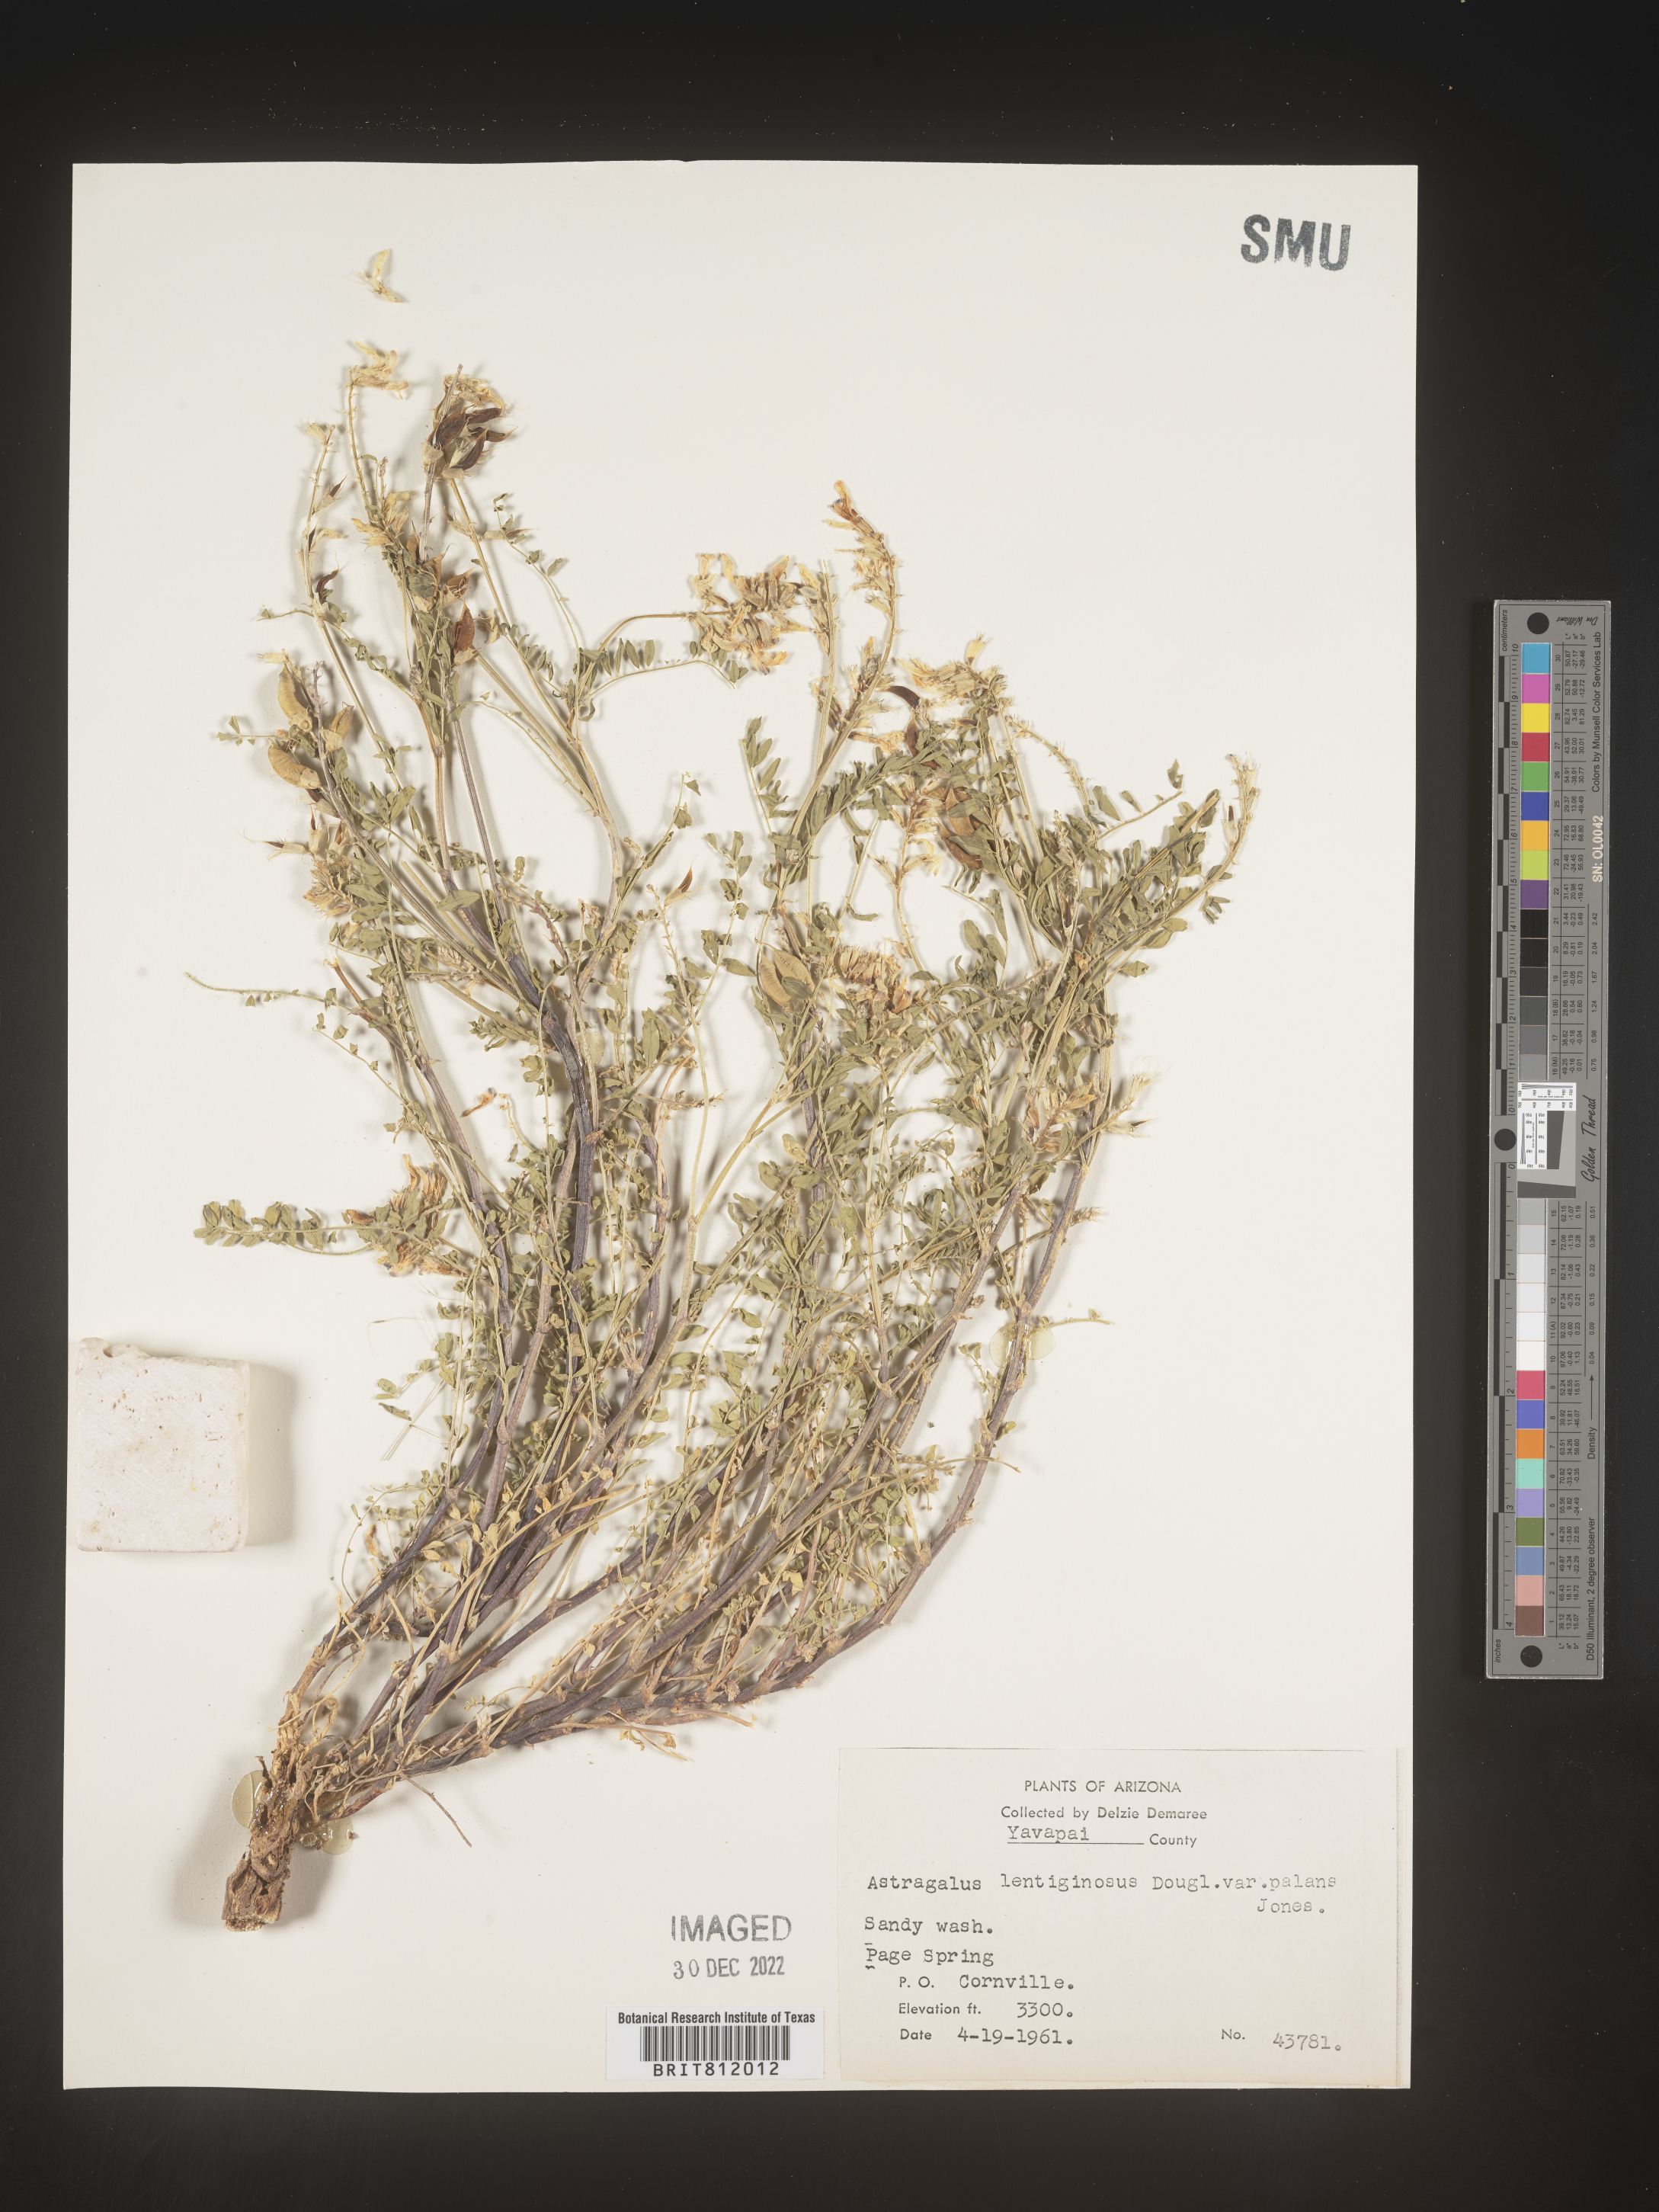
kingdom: Plantae
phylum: Tracheophyta
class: Magnoliopsida
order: Fabales
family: Fabaceae
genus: Astragalus
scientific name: Astragalus lentiginosus
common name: Freckled milkvetch
